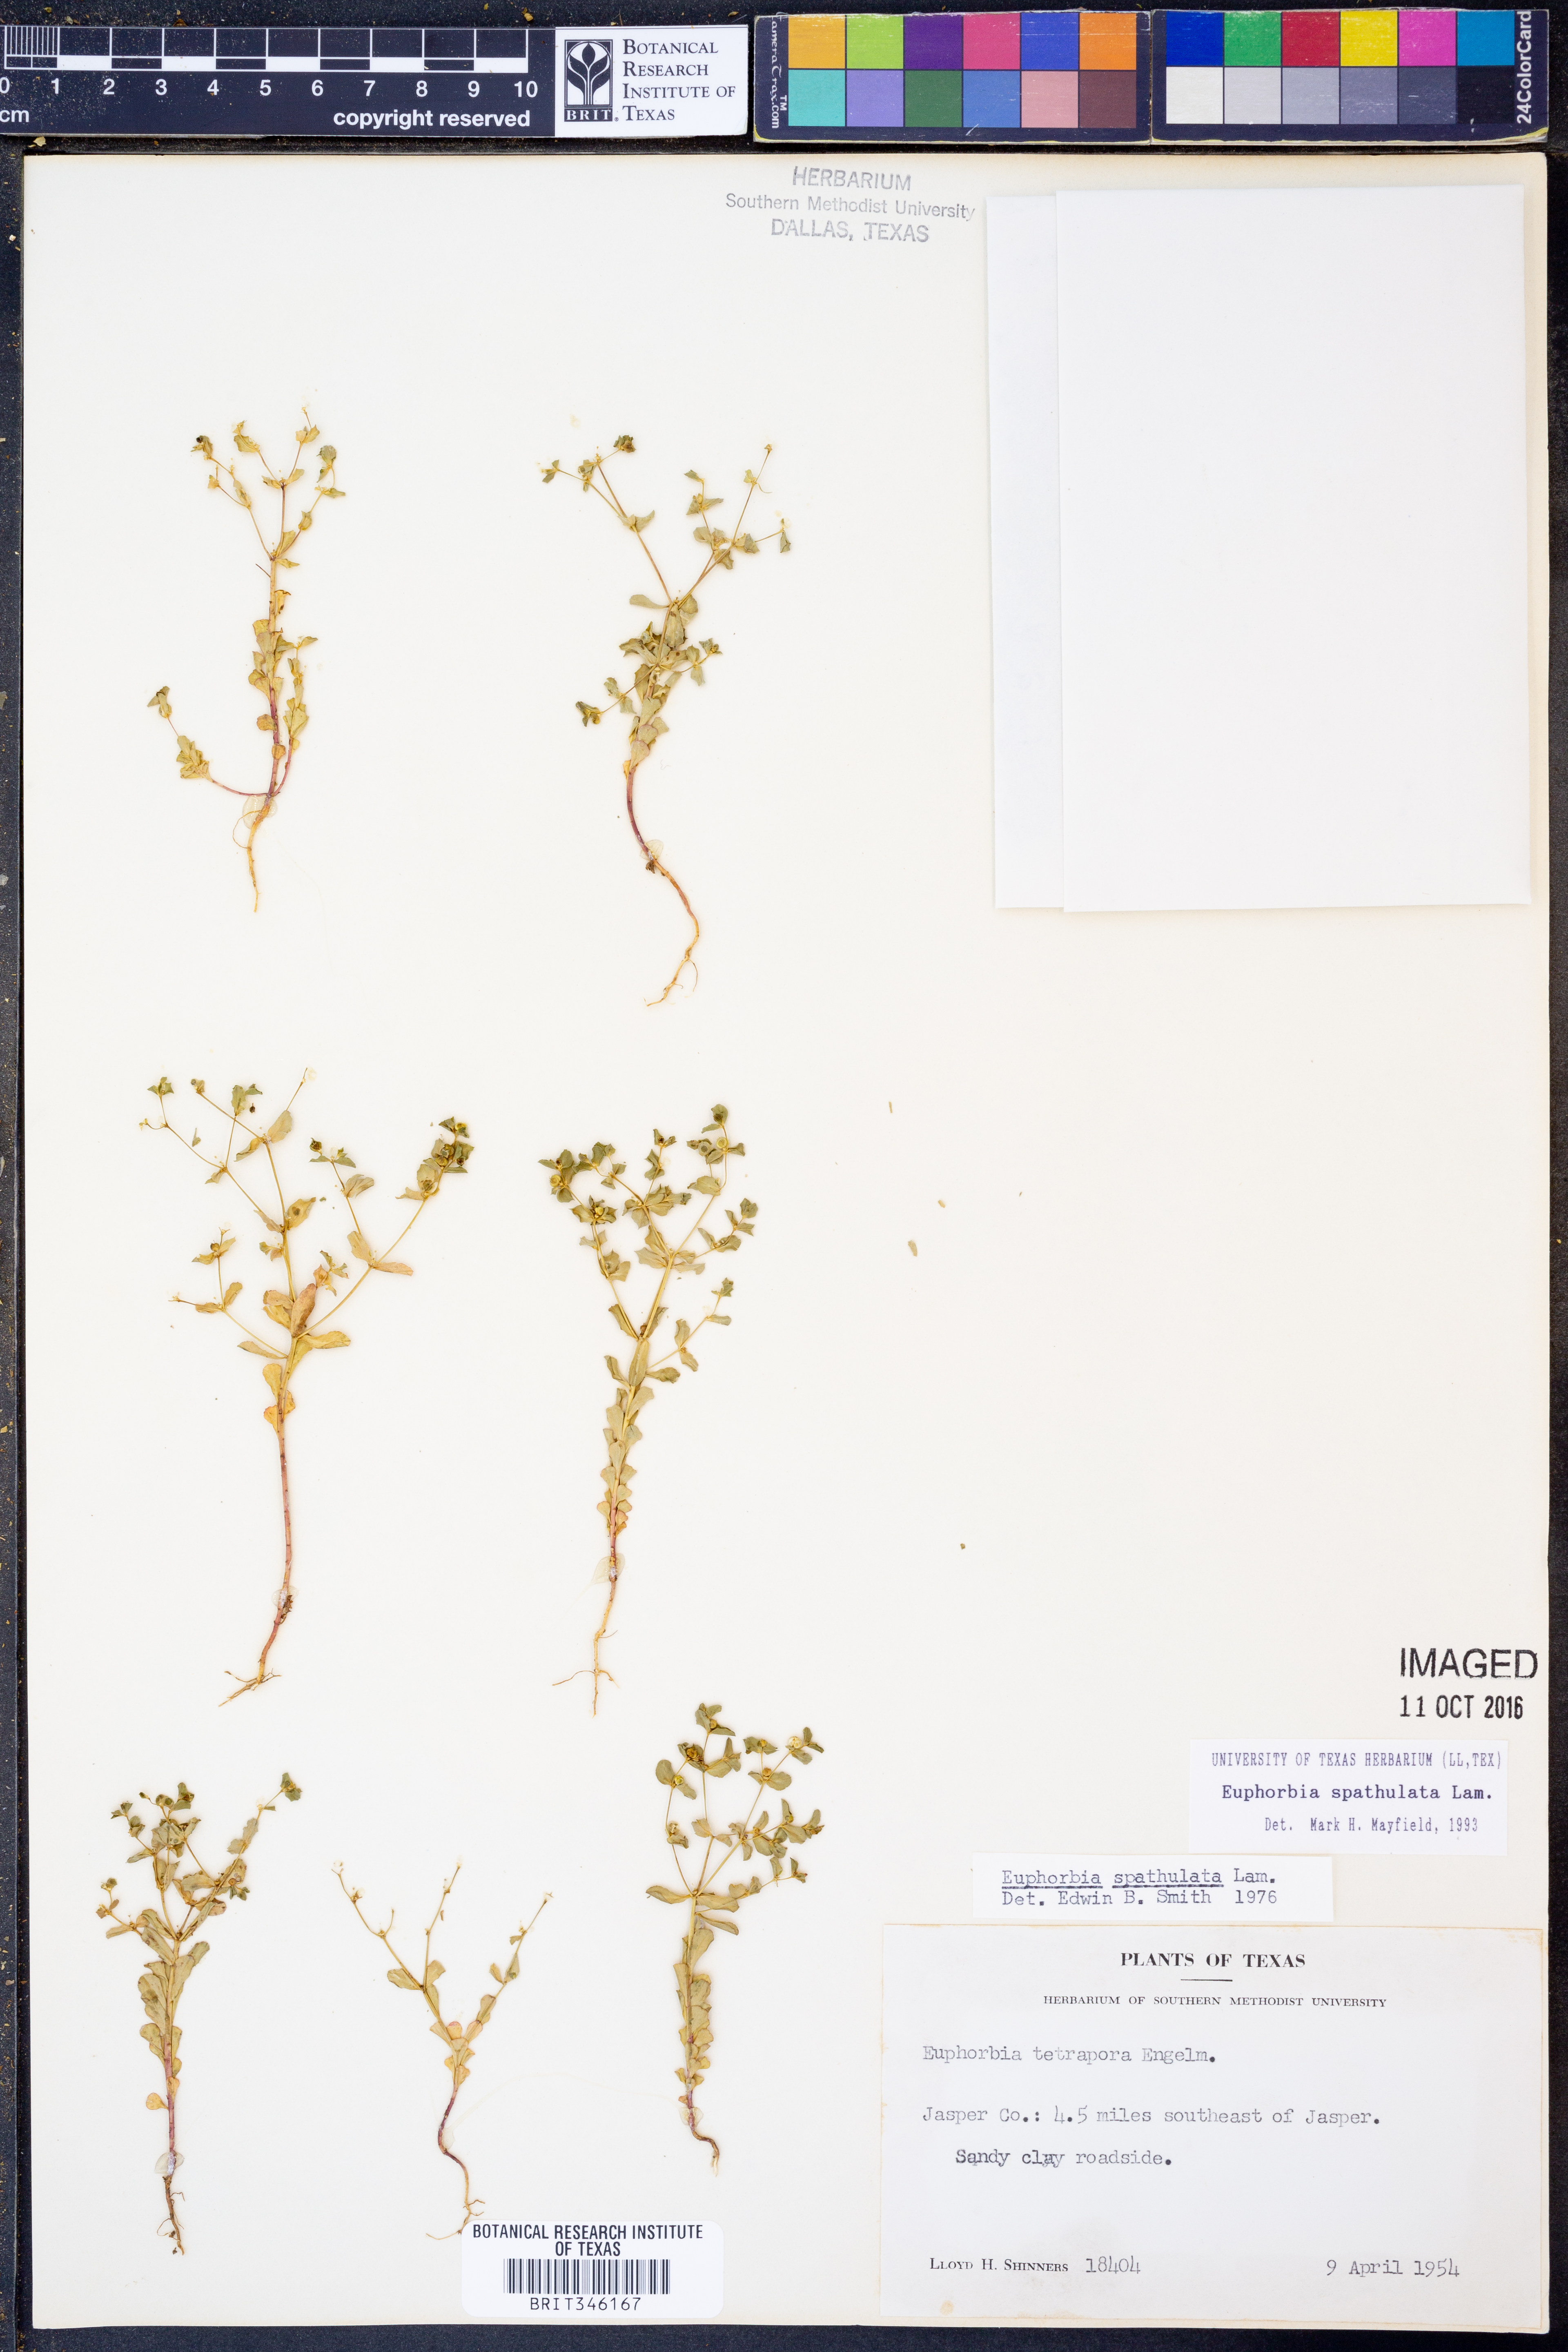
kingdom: Plantae
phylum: Tracheophyta
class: Magnoliopsida
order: Malpighiales
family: Euphorbiaceae
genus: Euphorbia
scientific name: Euphorbia spathulata
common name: Blunt spurge
